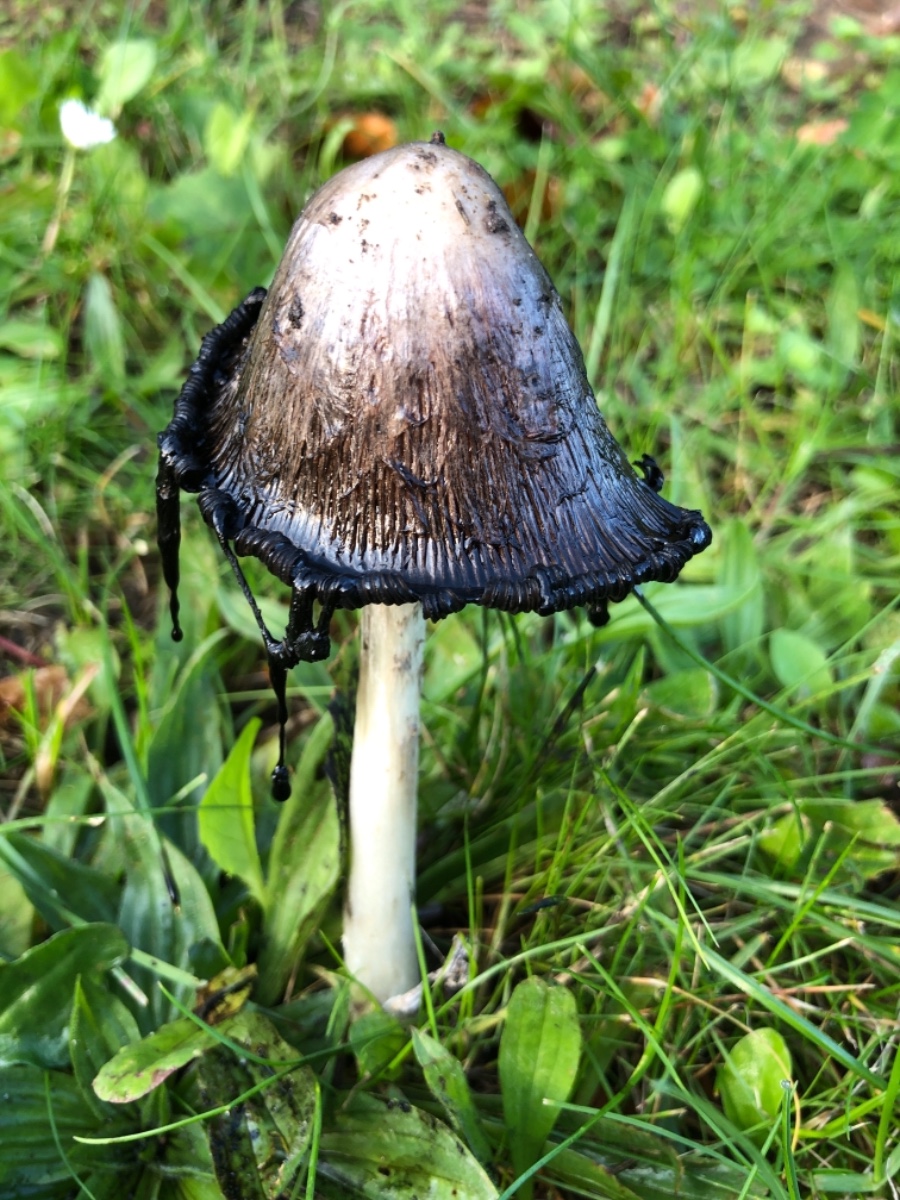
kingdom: Fungi
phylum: Basidiomycota
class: Agaricomycetes
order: Agaricales
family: Agaricaceae
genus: Coprinus
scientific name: Coprinus comatus
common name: stor parykhat
